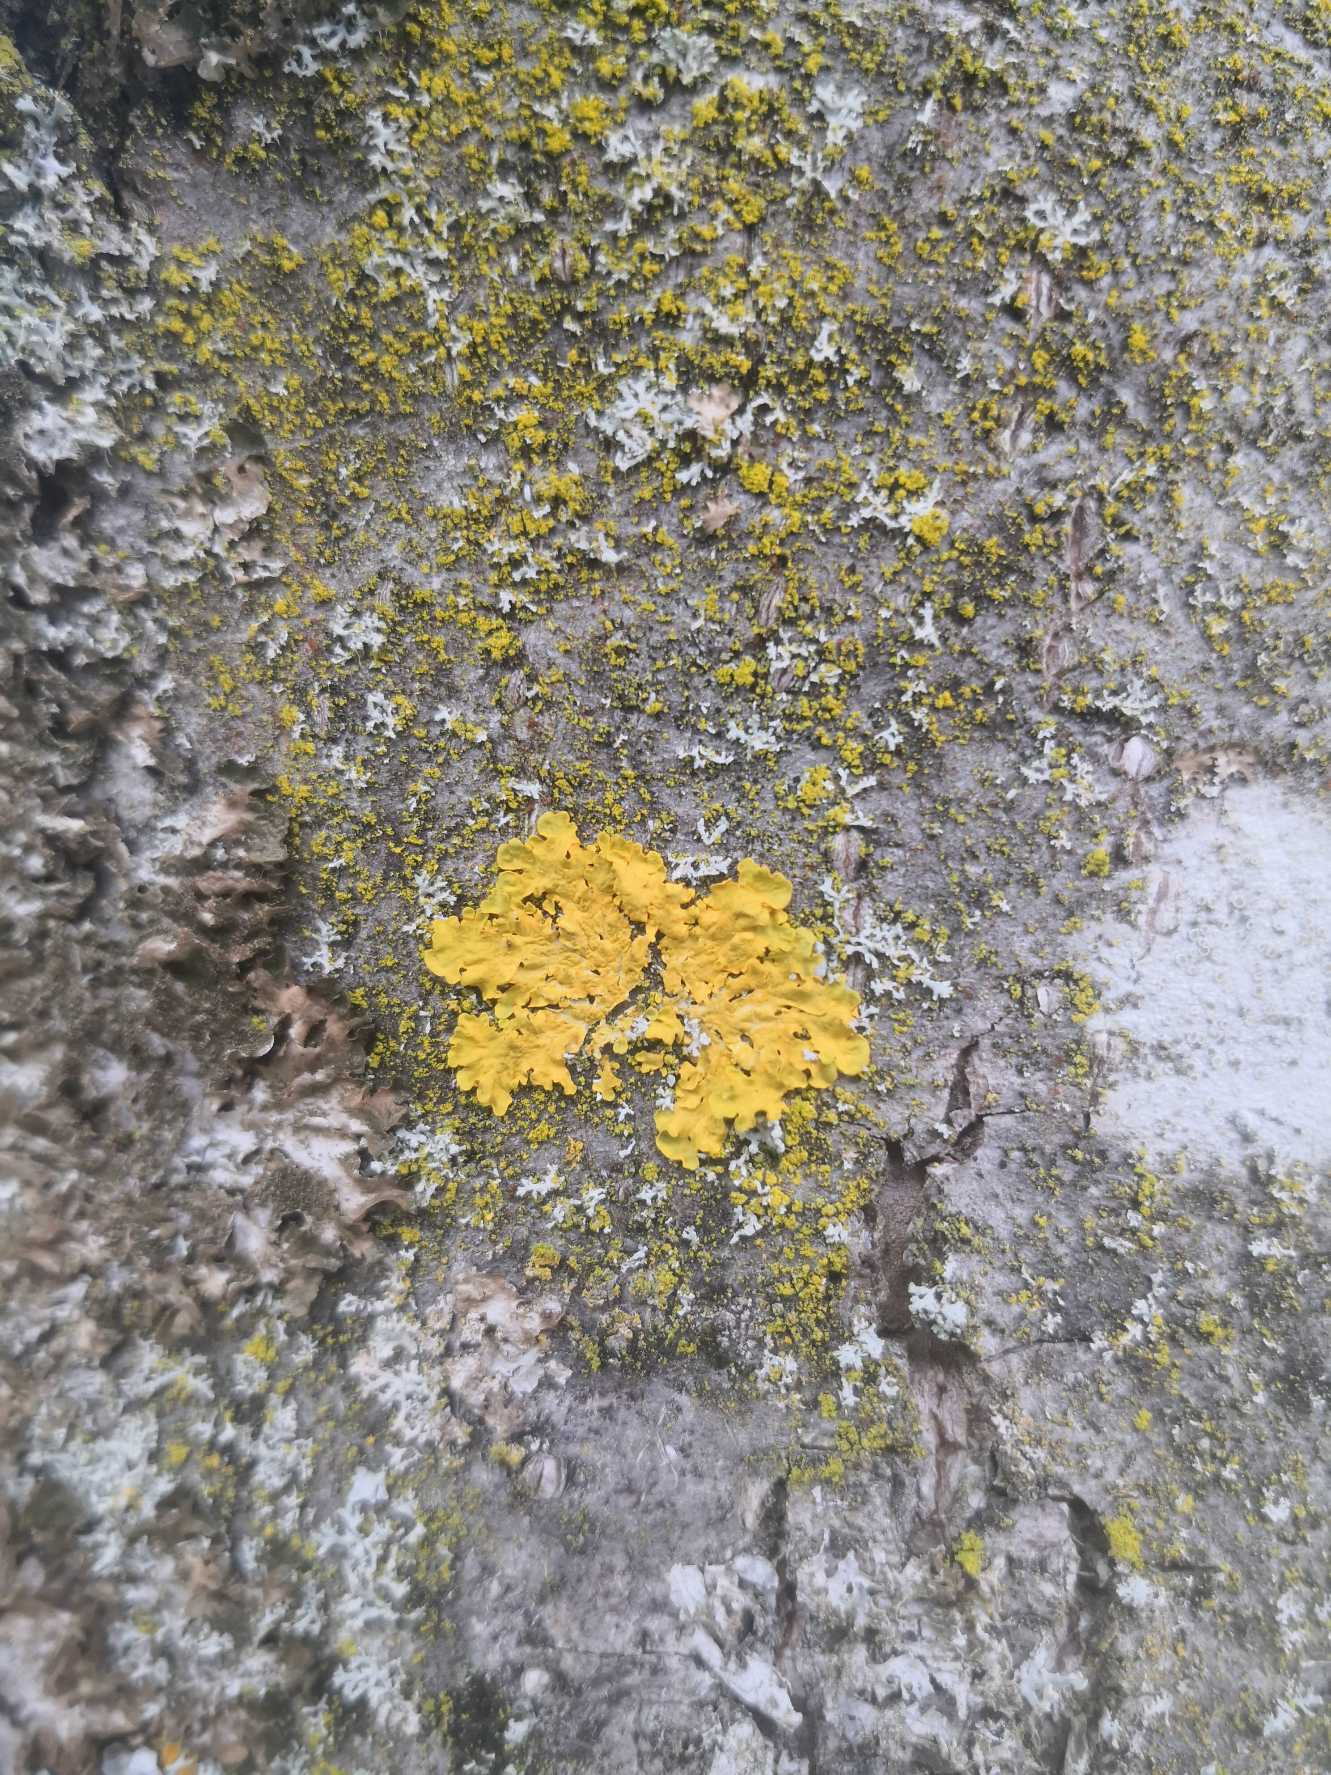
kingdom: Fungi
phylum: Ascomycota
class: Lecanoromycetes
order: Teloschistales
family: Teloschistaceae
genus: Xanthoria
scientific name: Xanthoria parietina
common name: Almindelig væggelav
